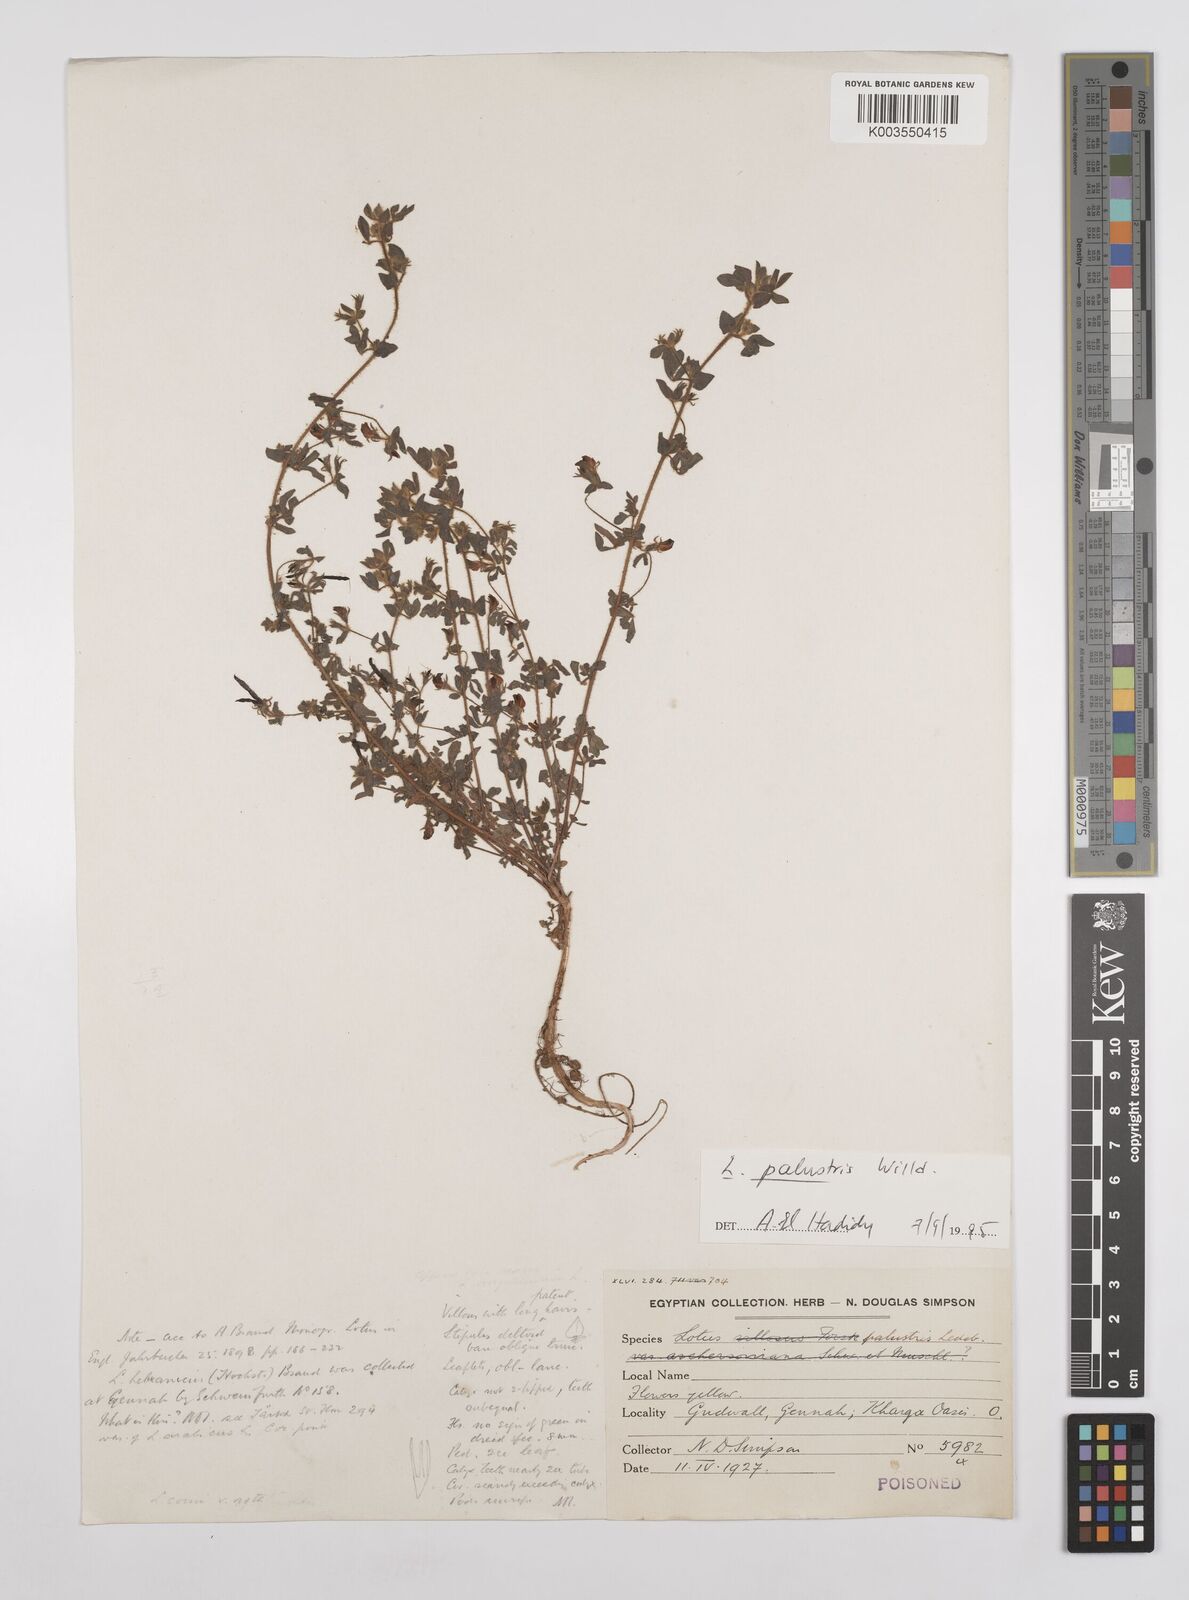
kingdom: Plantae
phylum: Tracheophyta
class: Magnoliopsida
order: Fabales
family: Fabaceae
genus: Lotus
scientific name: Lotus palustris
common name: Large birds-foot trefoil
